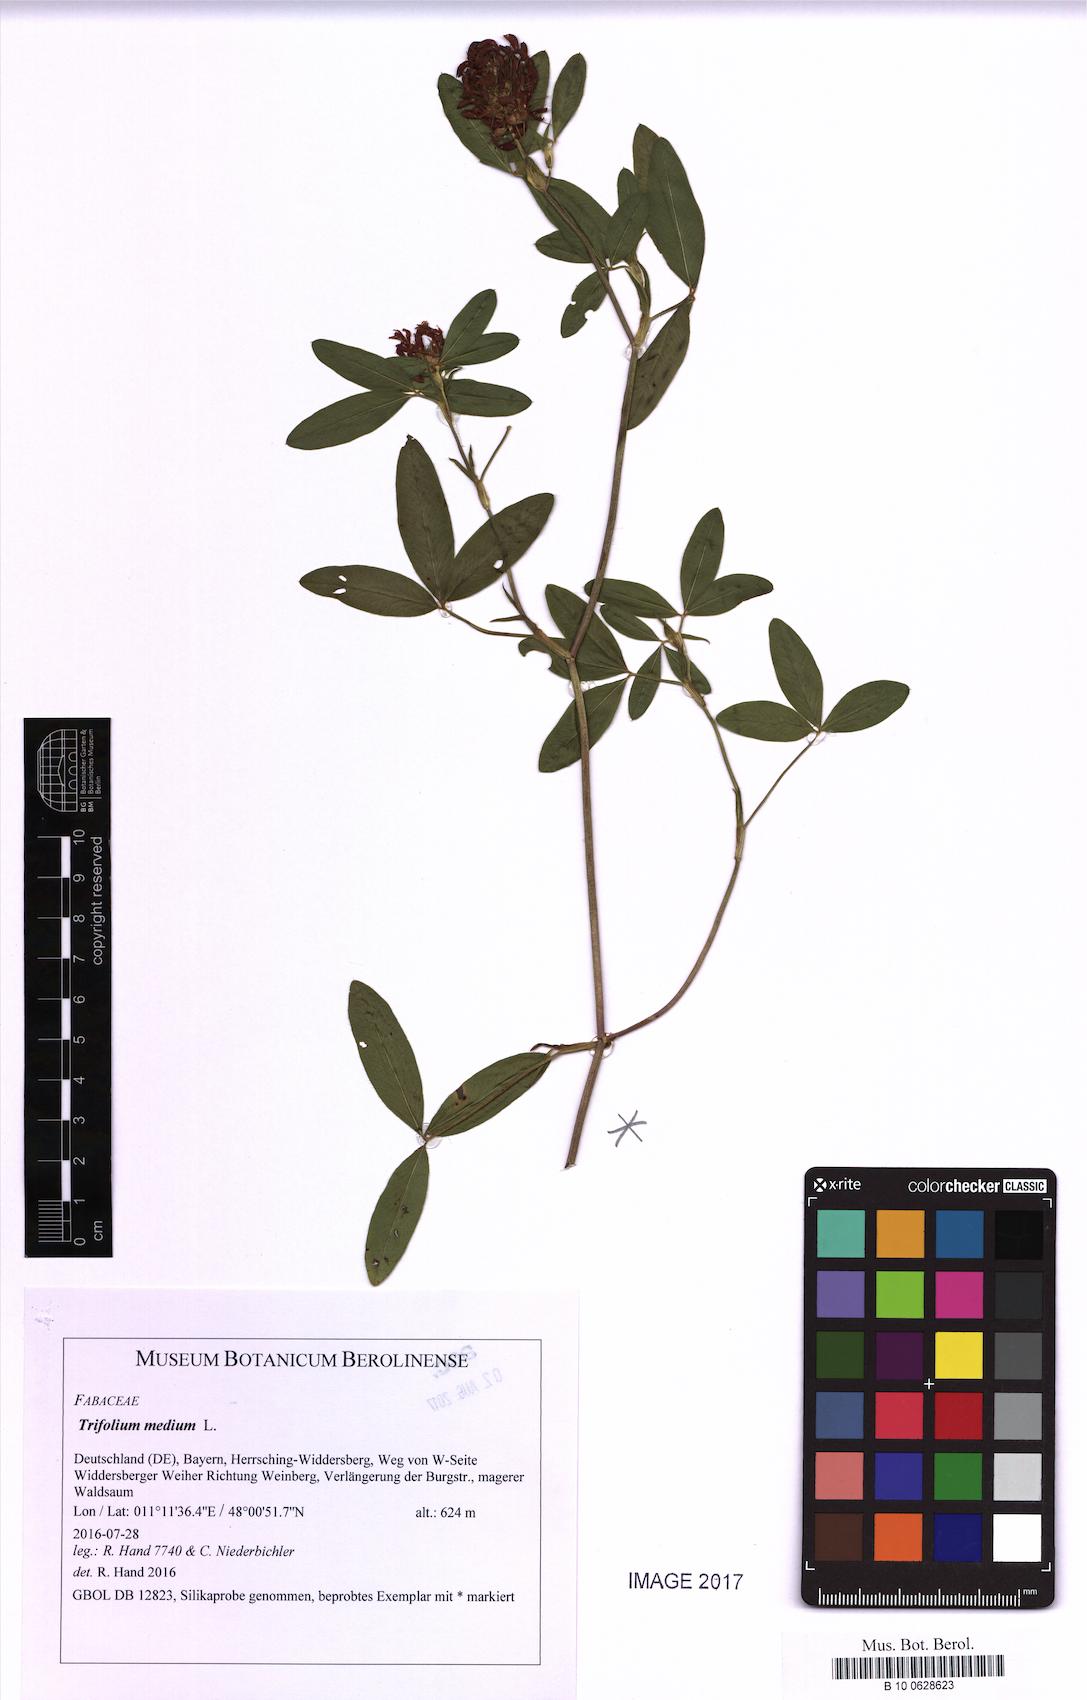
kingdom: Plantae
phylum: Tracheophyta
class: Magnoliopsida
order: Fabales
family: Fabaceae
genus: Trifolium
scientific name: Trifolium medium
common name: Zigzag clover
